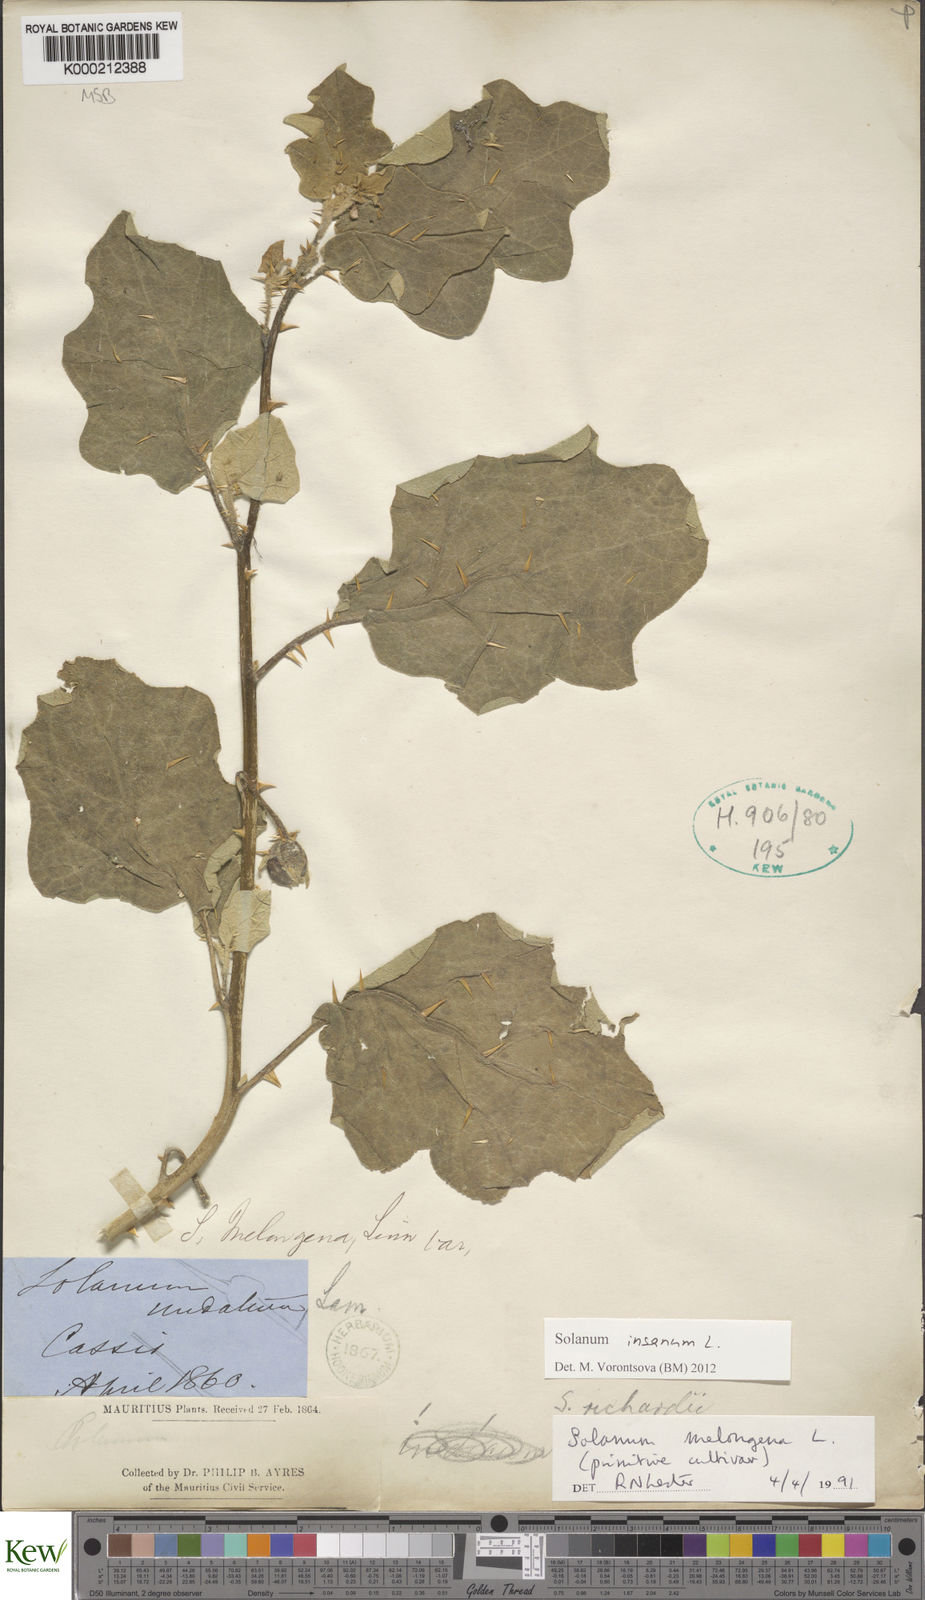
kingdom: Plantae
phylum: Tracheophyta
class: Magnoliopsida
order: Solanales
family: Solanaceae
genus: Solanum
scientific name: Solanum melongena
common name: Eggplant
